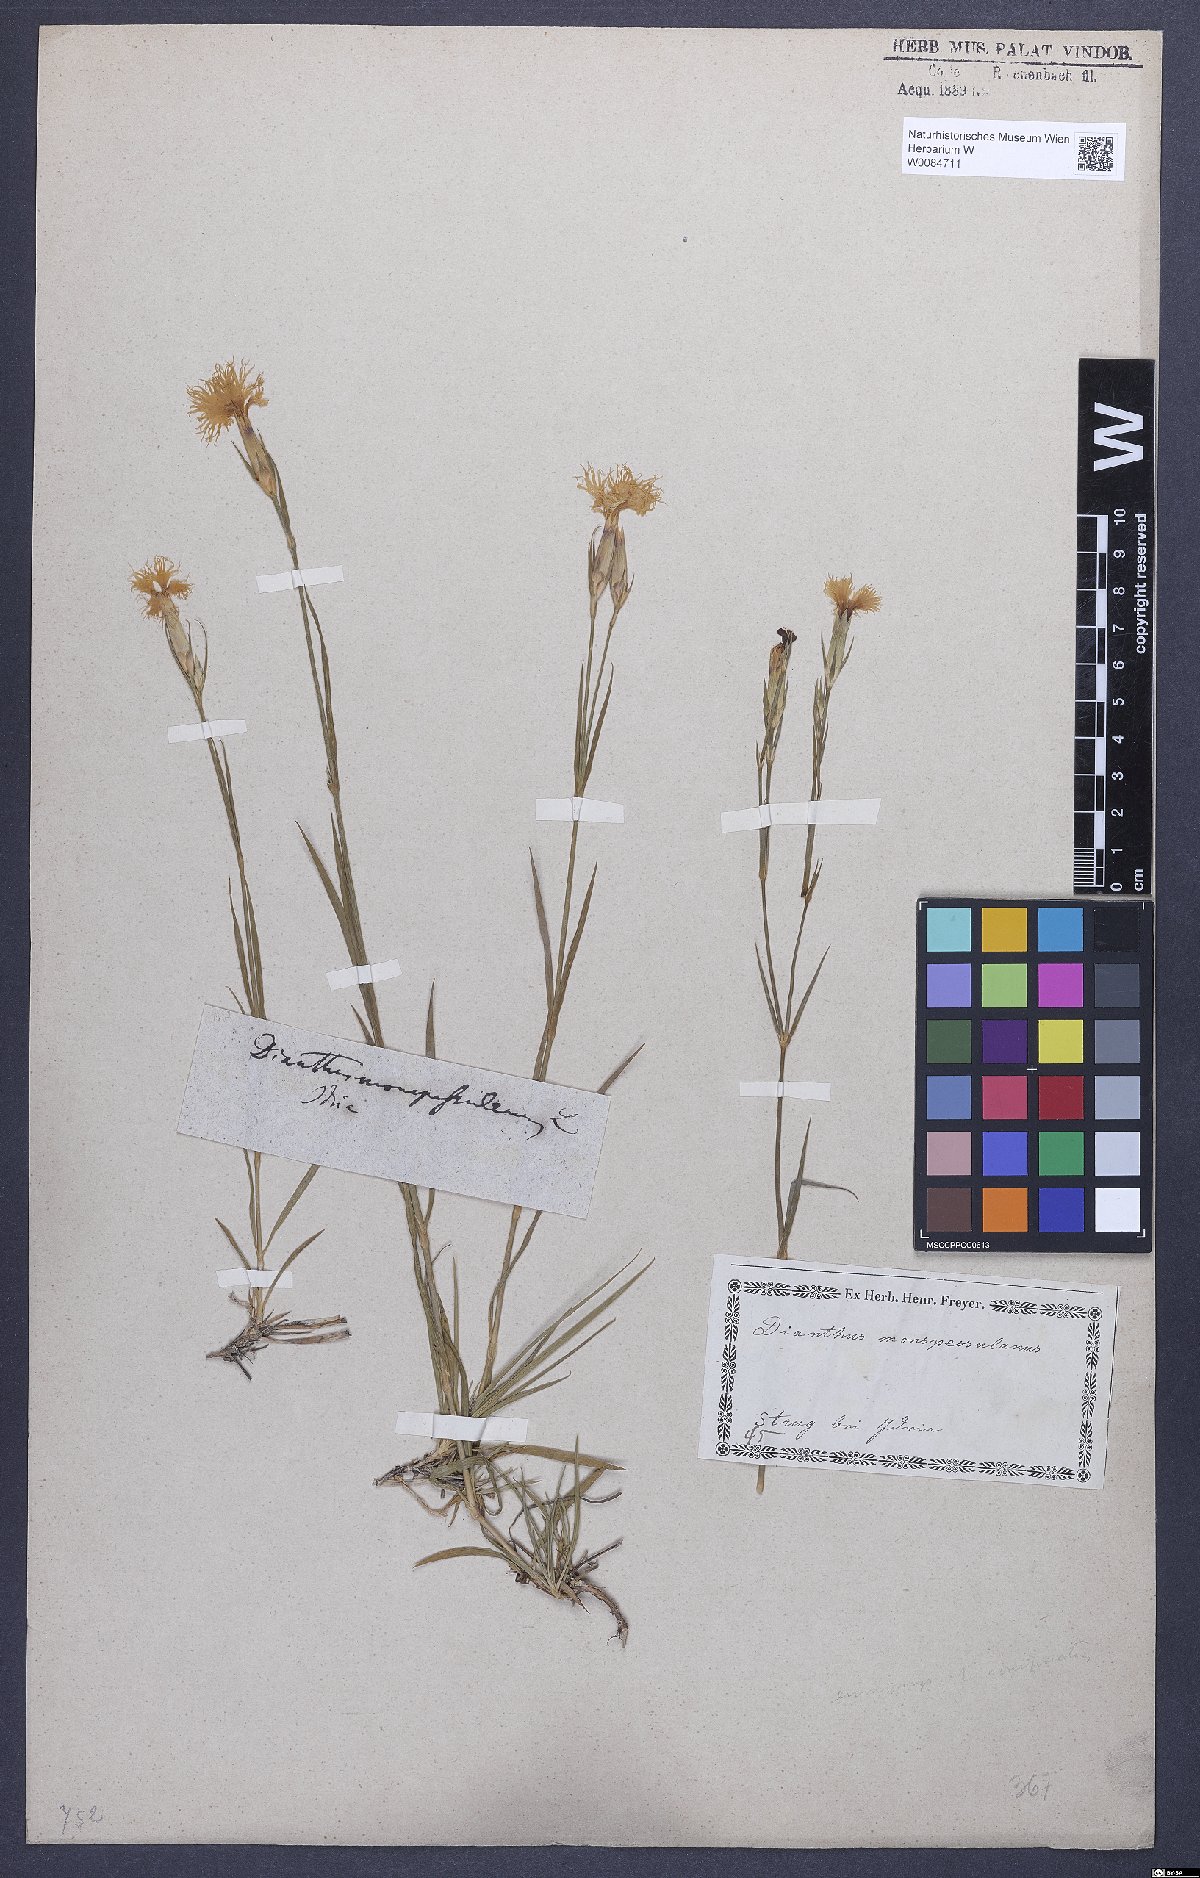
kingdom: Plantae
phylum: Tracheophyta
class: Magnoliopsida
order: Caryophyllales
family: Caryophyllaceae
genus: Dianthus
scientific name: Dianthus hyssopifolius
